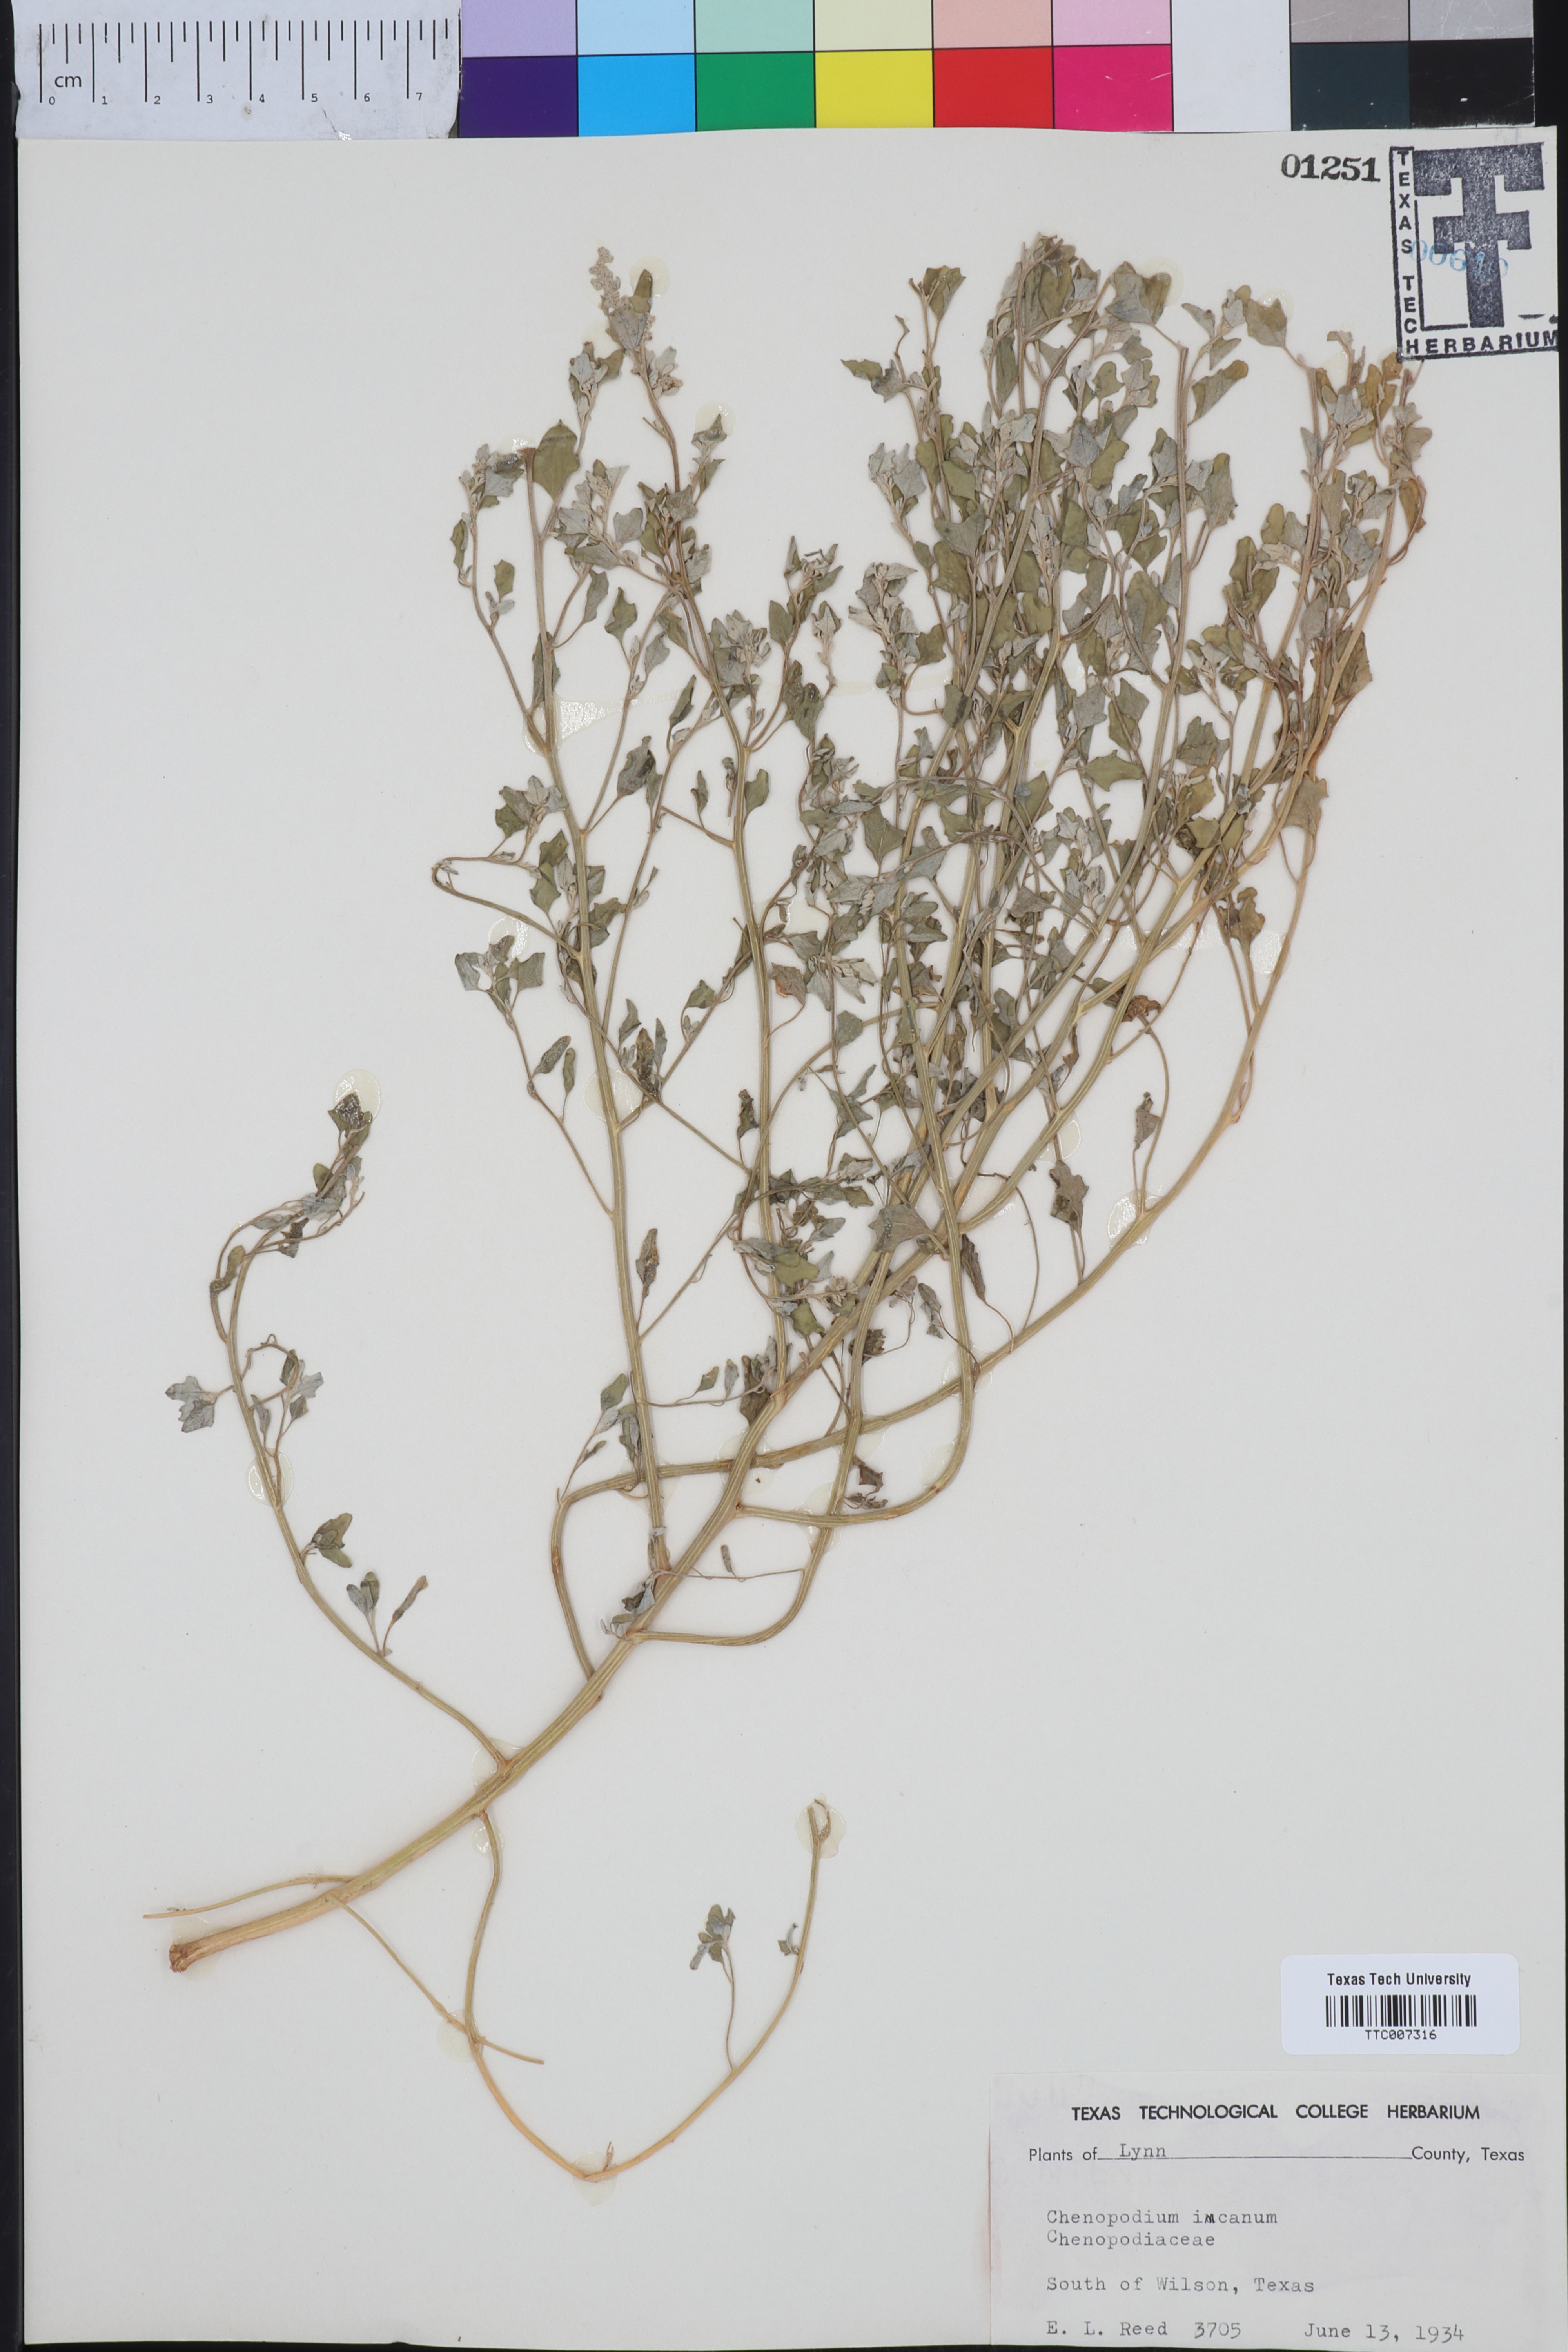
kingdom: Plantae
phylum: Tracheophyta
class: Magnoliopsida
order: Caryophyllales
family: Amaranthaceae
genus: Chenopodium
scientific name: Chenopodium incanum
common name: Hoary goosefoot
